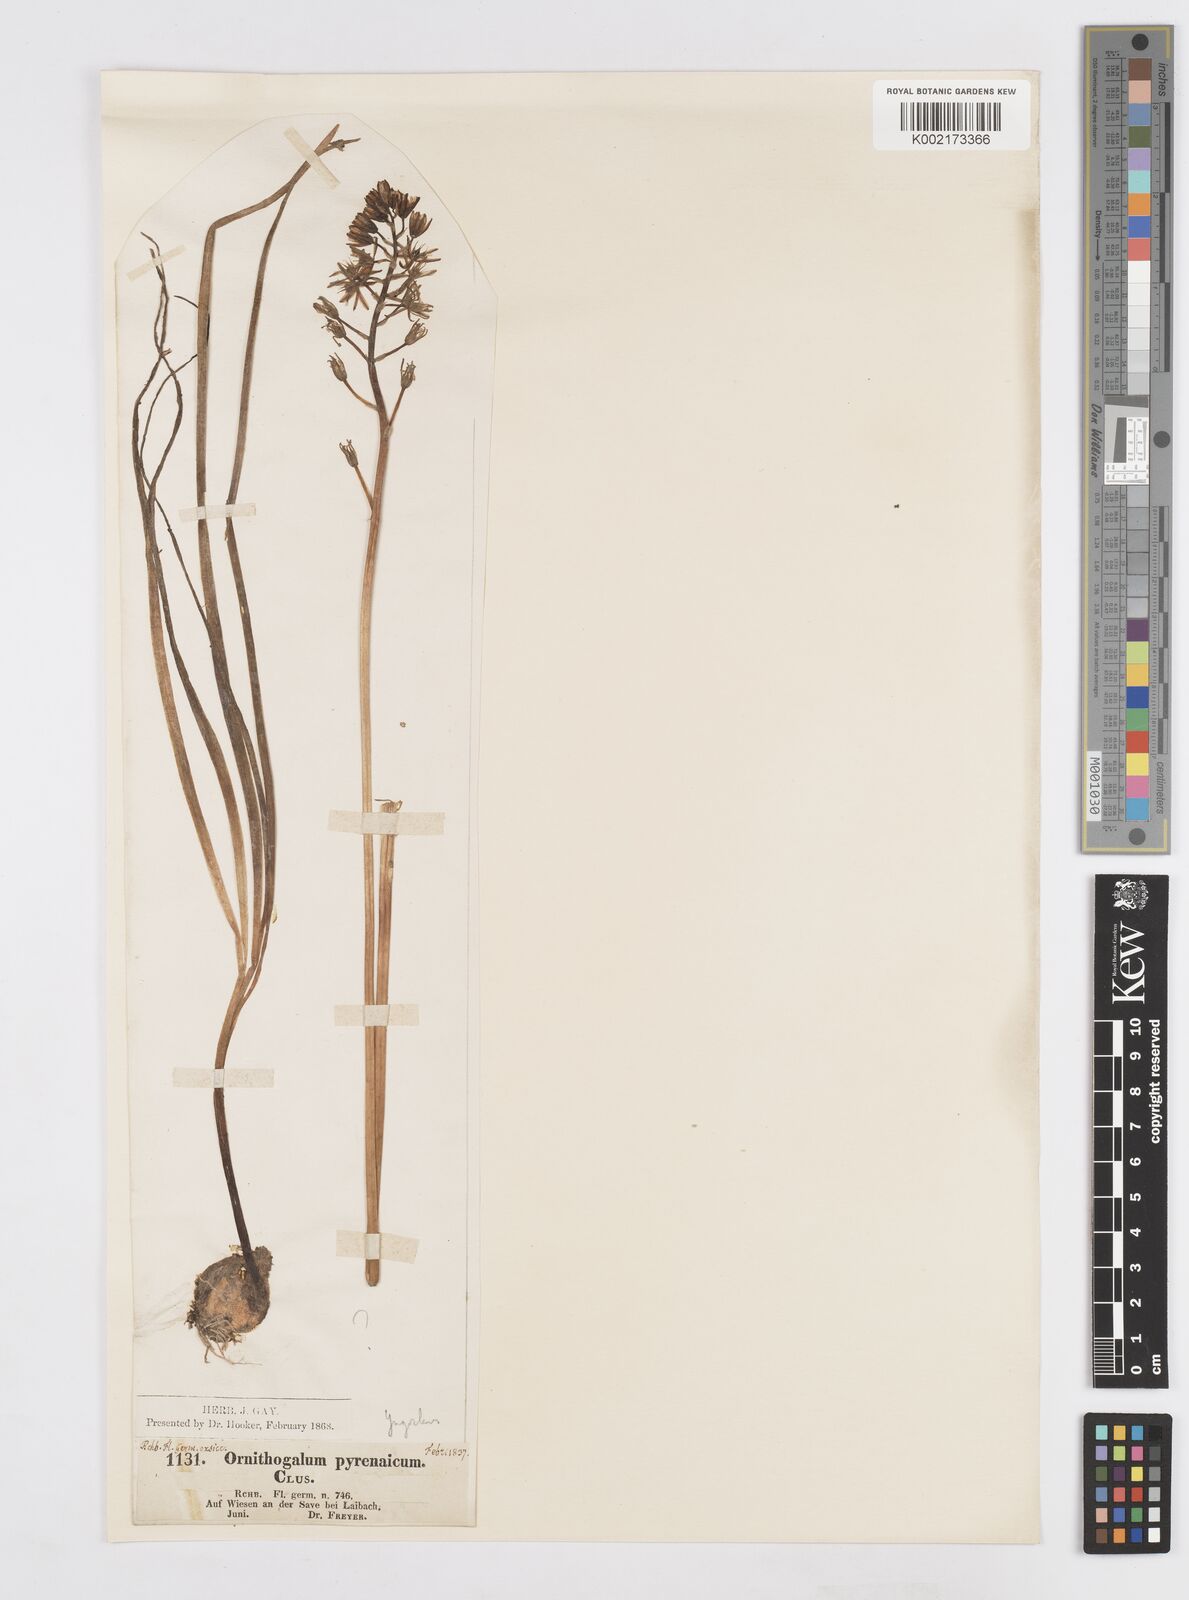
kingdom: Plantae
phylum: Tracheophyta
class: Liliopsida
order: Asparagales
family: Asparagaceae
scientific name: Asparagaceae
